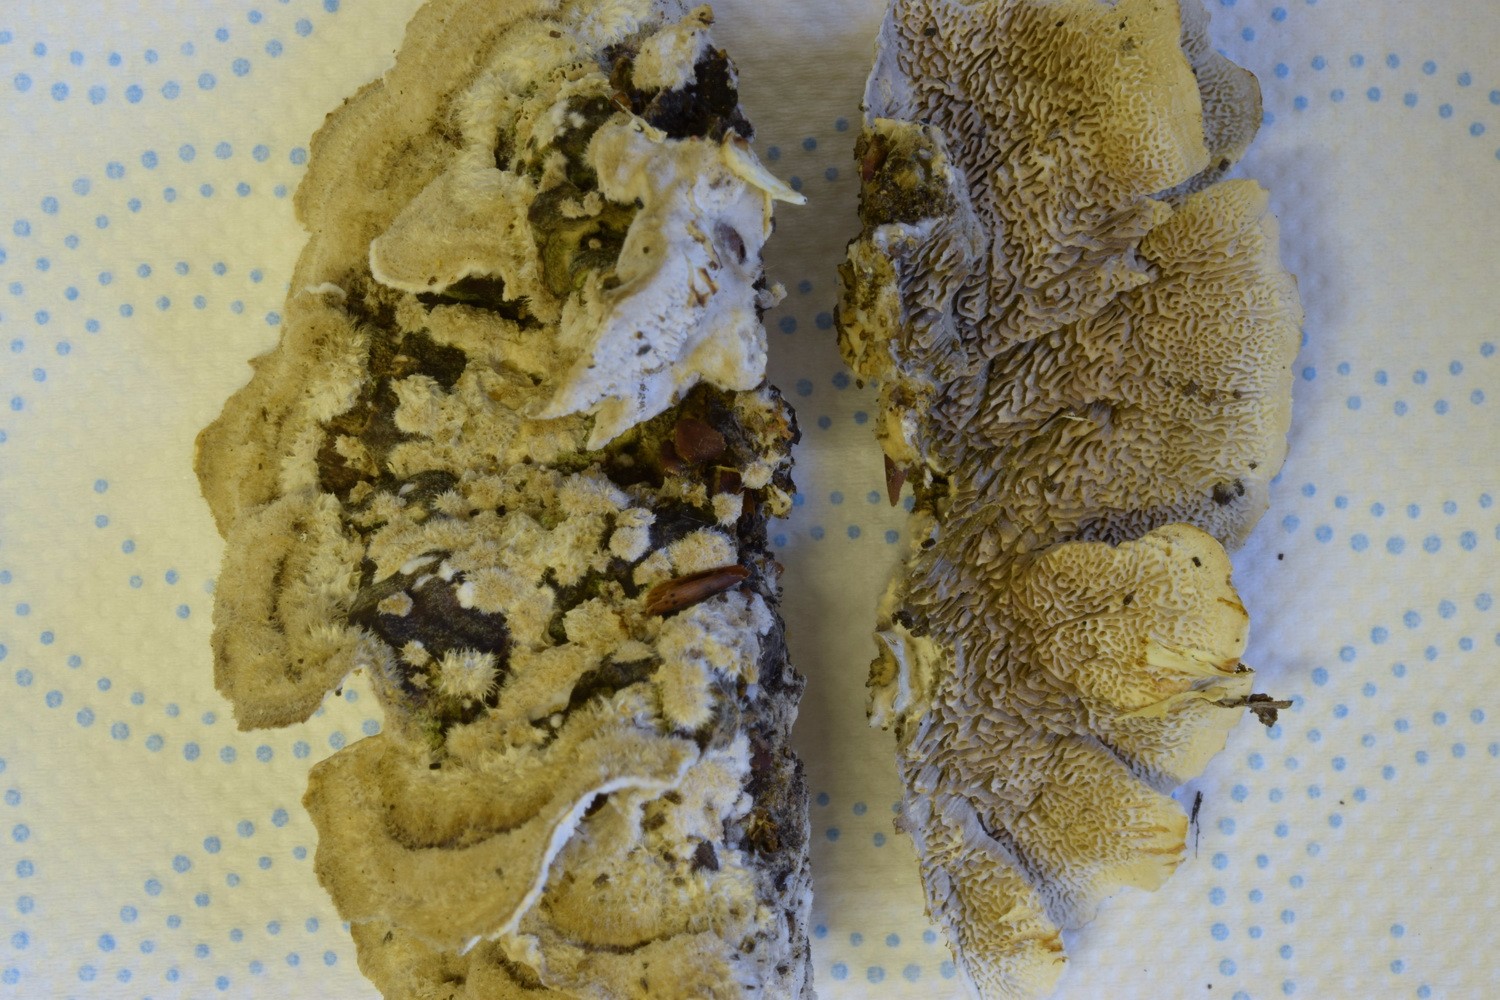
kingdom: Fungi
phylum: Basidiomycota
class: Agaricomycetes
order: Polyporales
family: Cerrenaceae
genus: Cerrena
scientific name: Cerrena unicolor
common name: ensfarvet læderporesvamp
